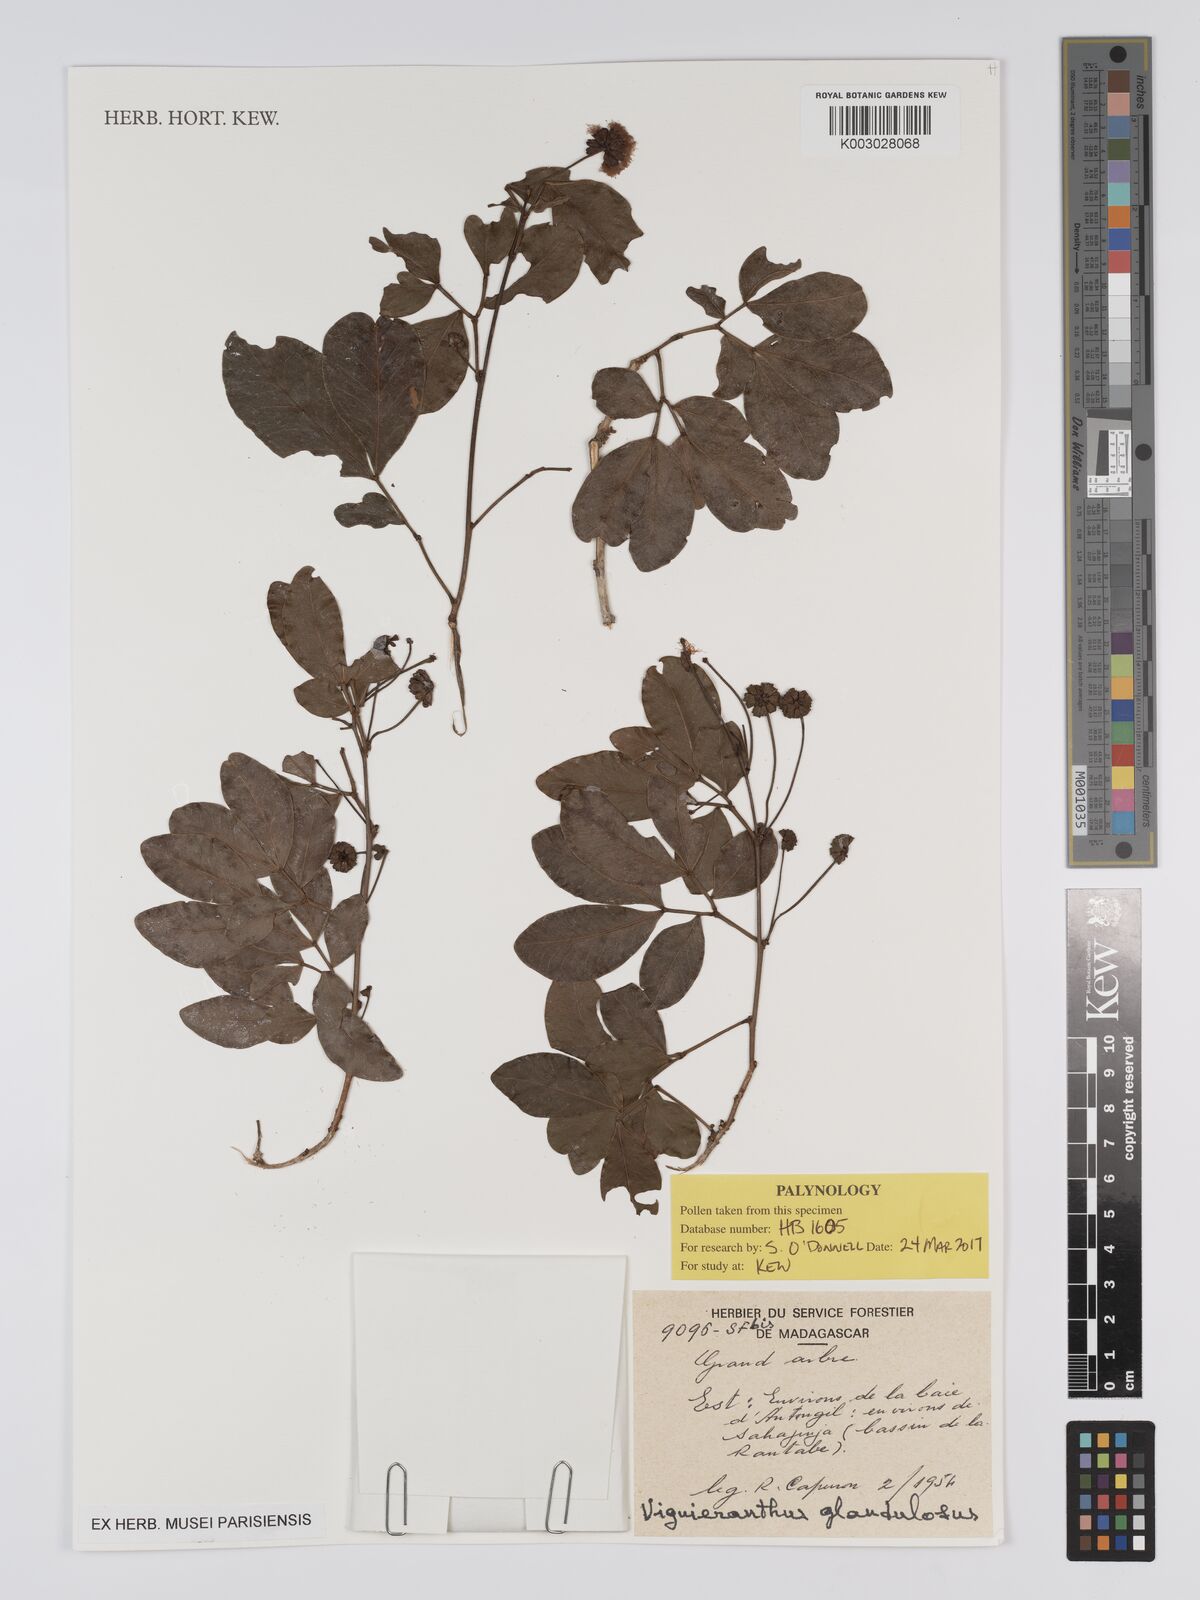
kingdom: Plantae
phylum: Tracheophyta
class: Magnoliopsida
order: Fabales
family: Fabaceae
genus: Viguieranthus
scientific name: Viguieranthus glandulosus
